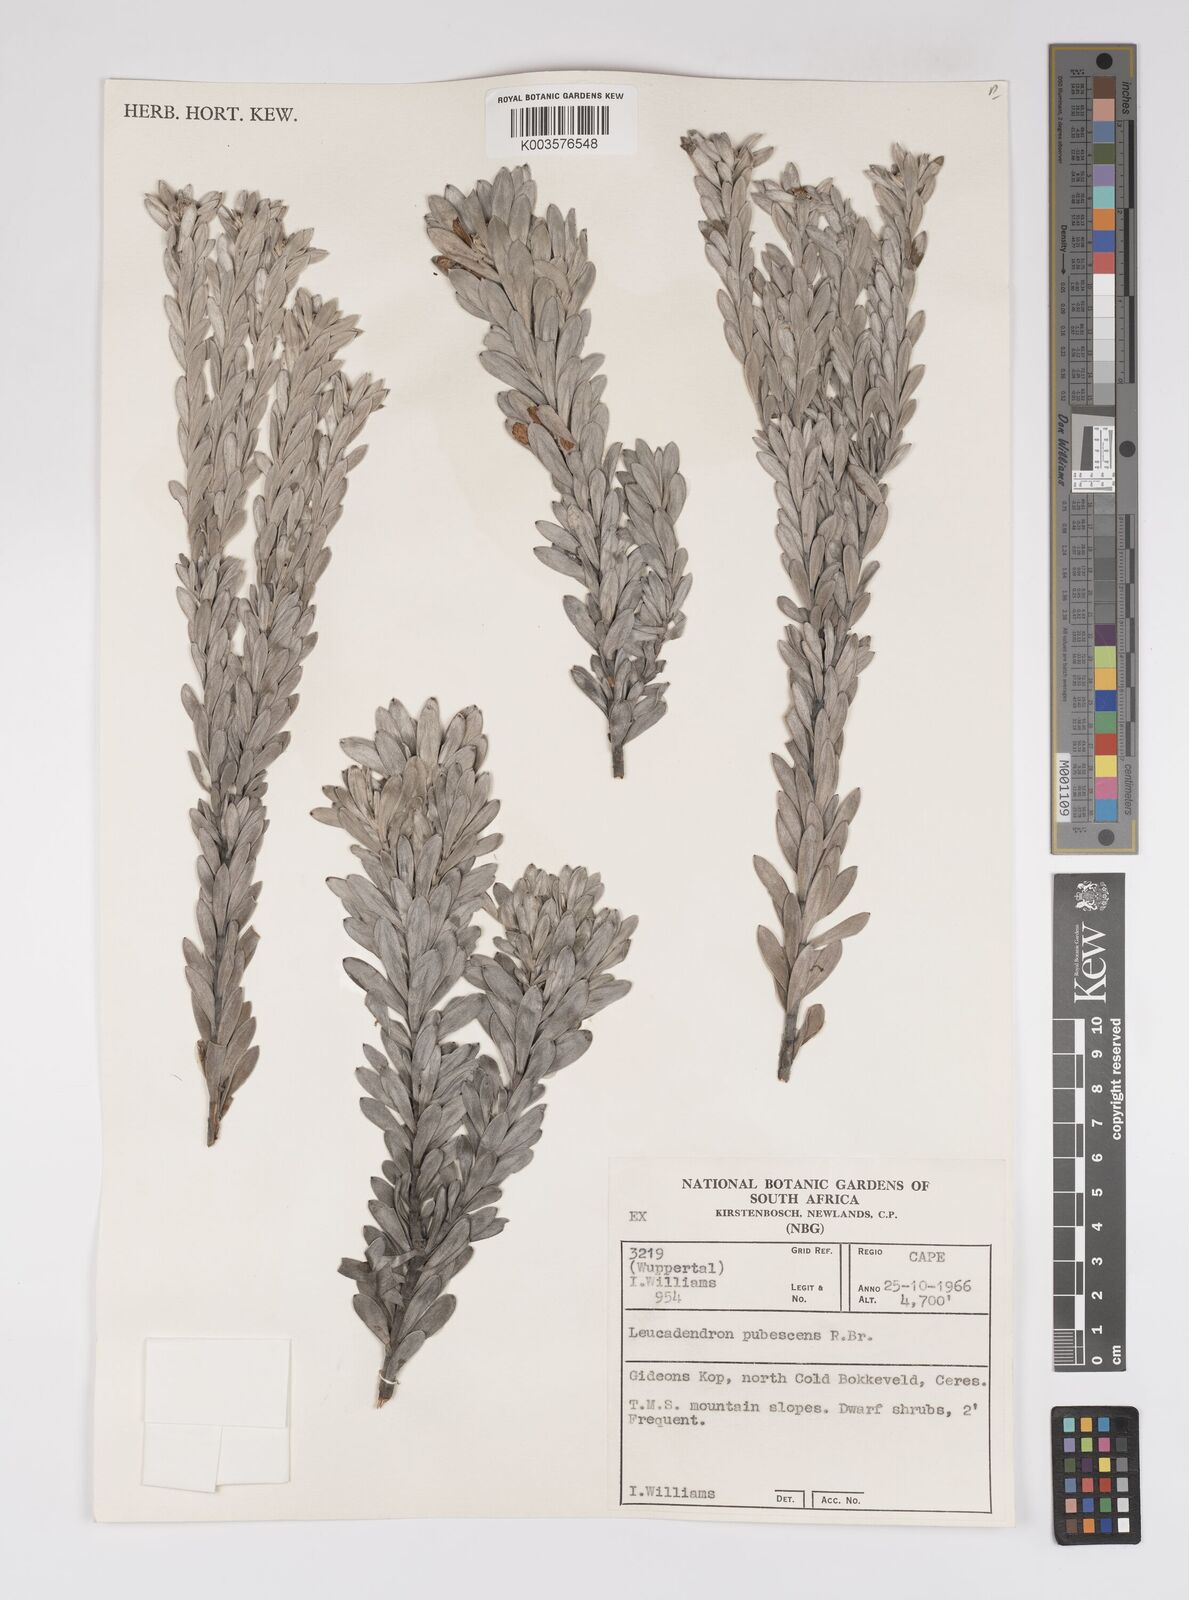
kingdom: Plantae
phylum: Tracheophyta
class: Magnoliopsida
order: Proteales
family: Proteaceae
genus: Leucadendron
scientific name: Leucadendron pubescens
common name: Grey conebush
